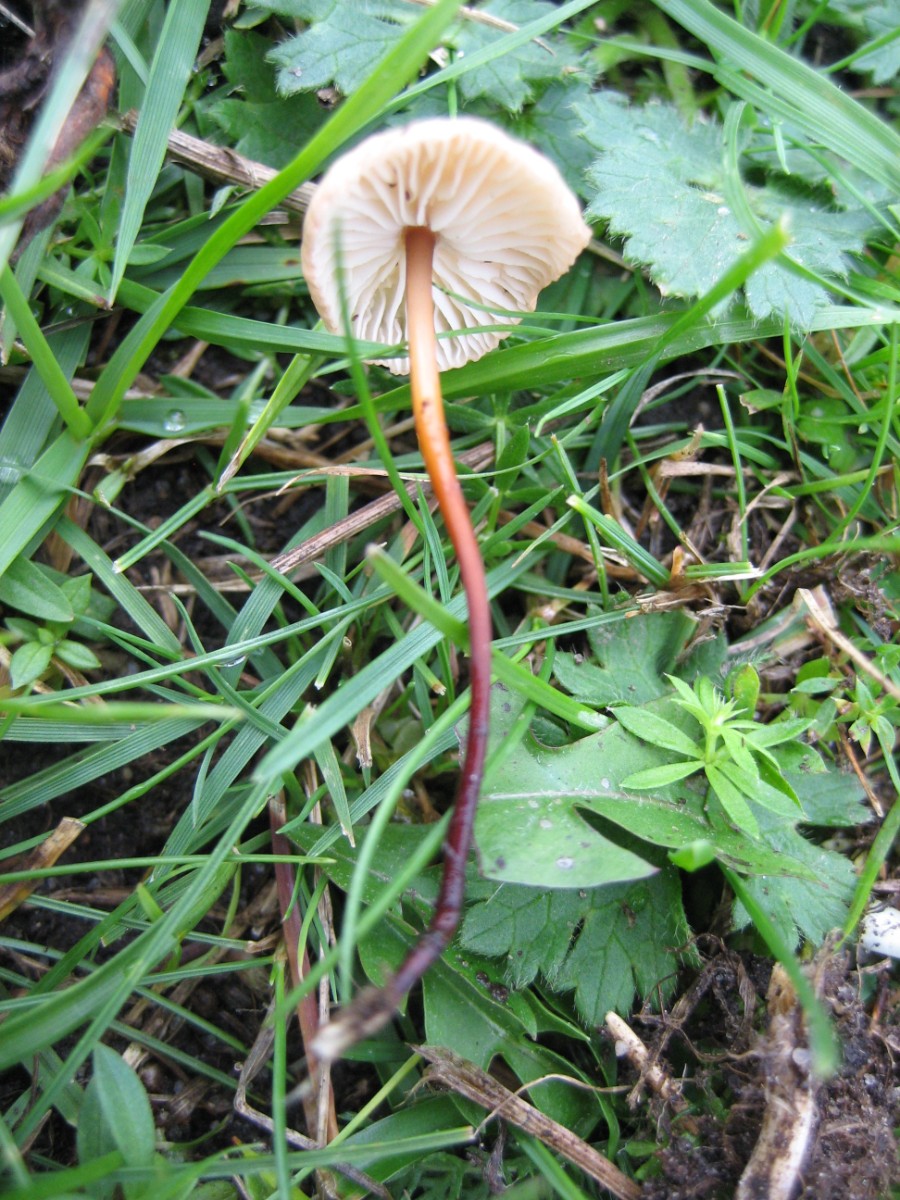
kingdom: Fungi
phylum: Basidiomycota
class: Agaricomycetes
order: Agaricales
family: Omphalotaceae
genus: Mycetinis
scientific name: Mycetinis scorodonius
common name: lille løghat
